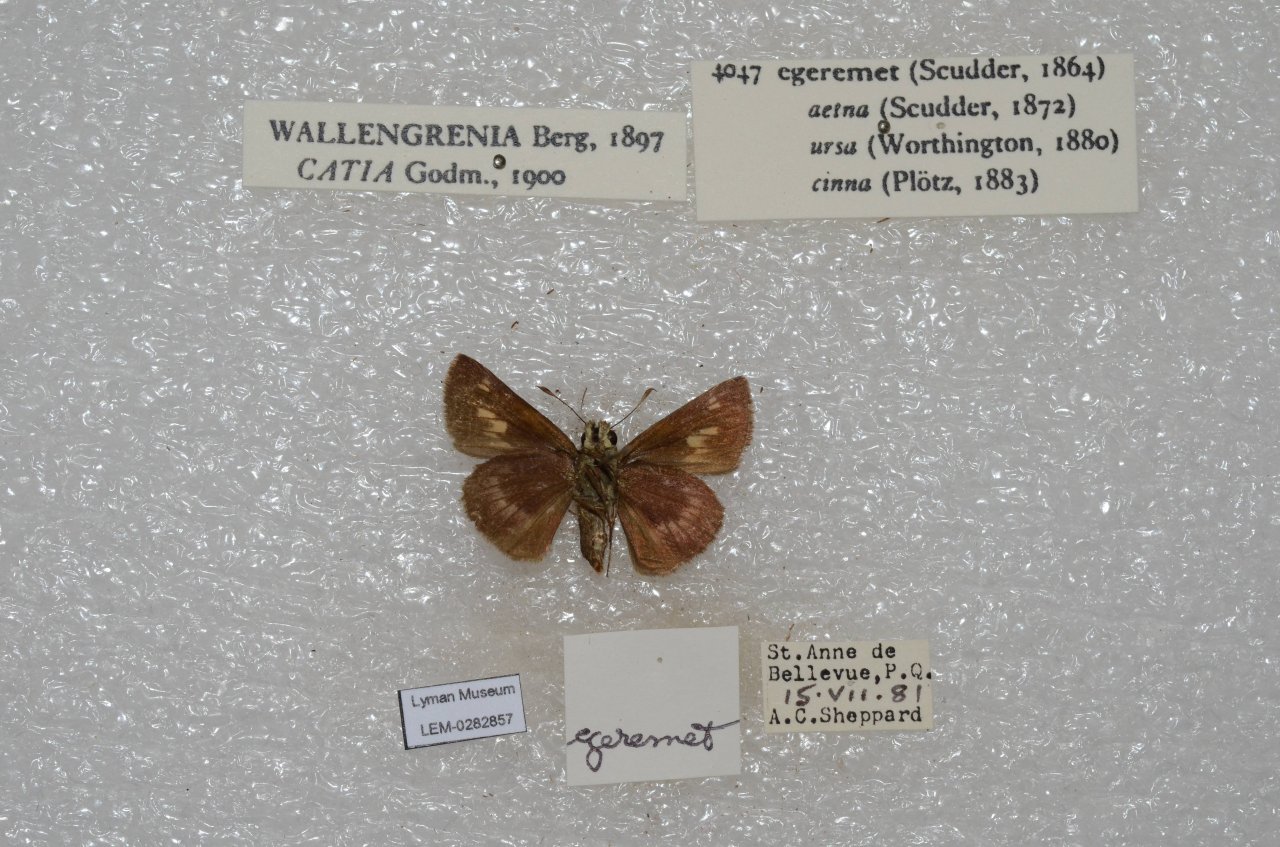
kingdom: Animalia
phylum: Arthropoda
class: Insecta
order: Lepidoptera
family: Hesperiidae
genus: Polites
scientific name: Polites egeremet
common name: Northern Broken-Dash
